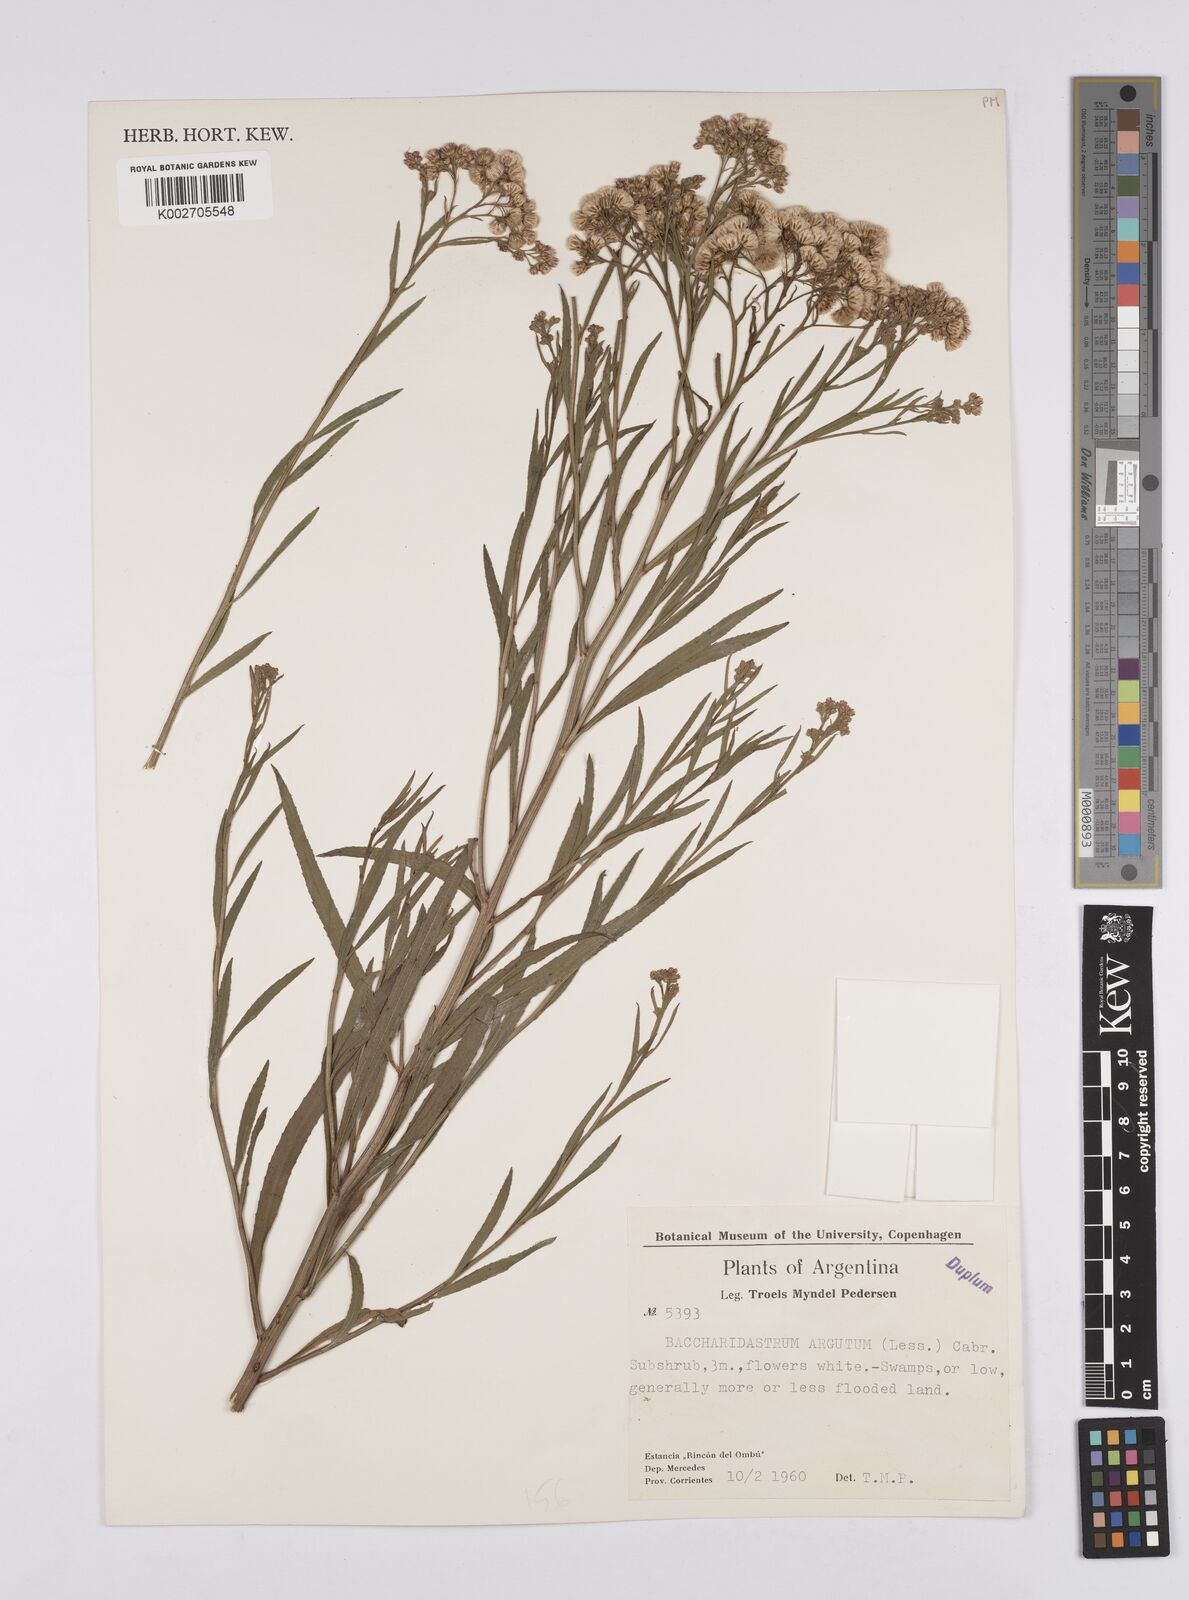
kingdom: Plantae
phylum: Tracheophyta
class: Magnoliopsida
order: Asterales
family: Asteraceae
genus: Baccharis
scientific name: Baccharis breviseta
